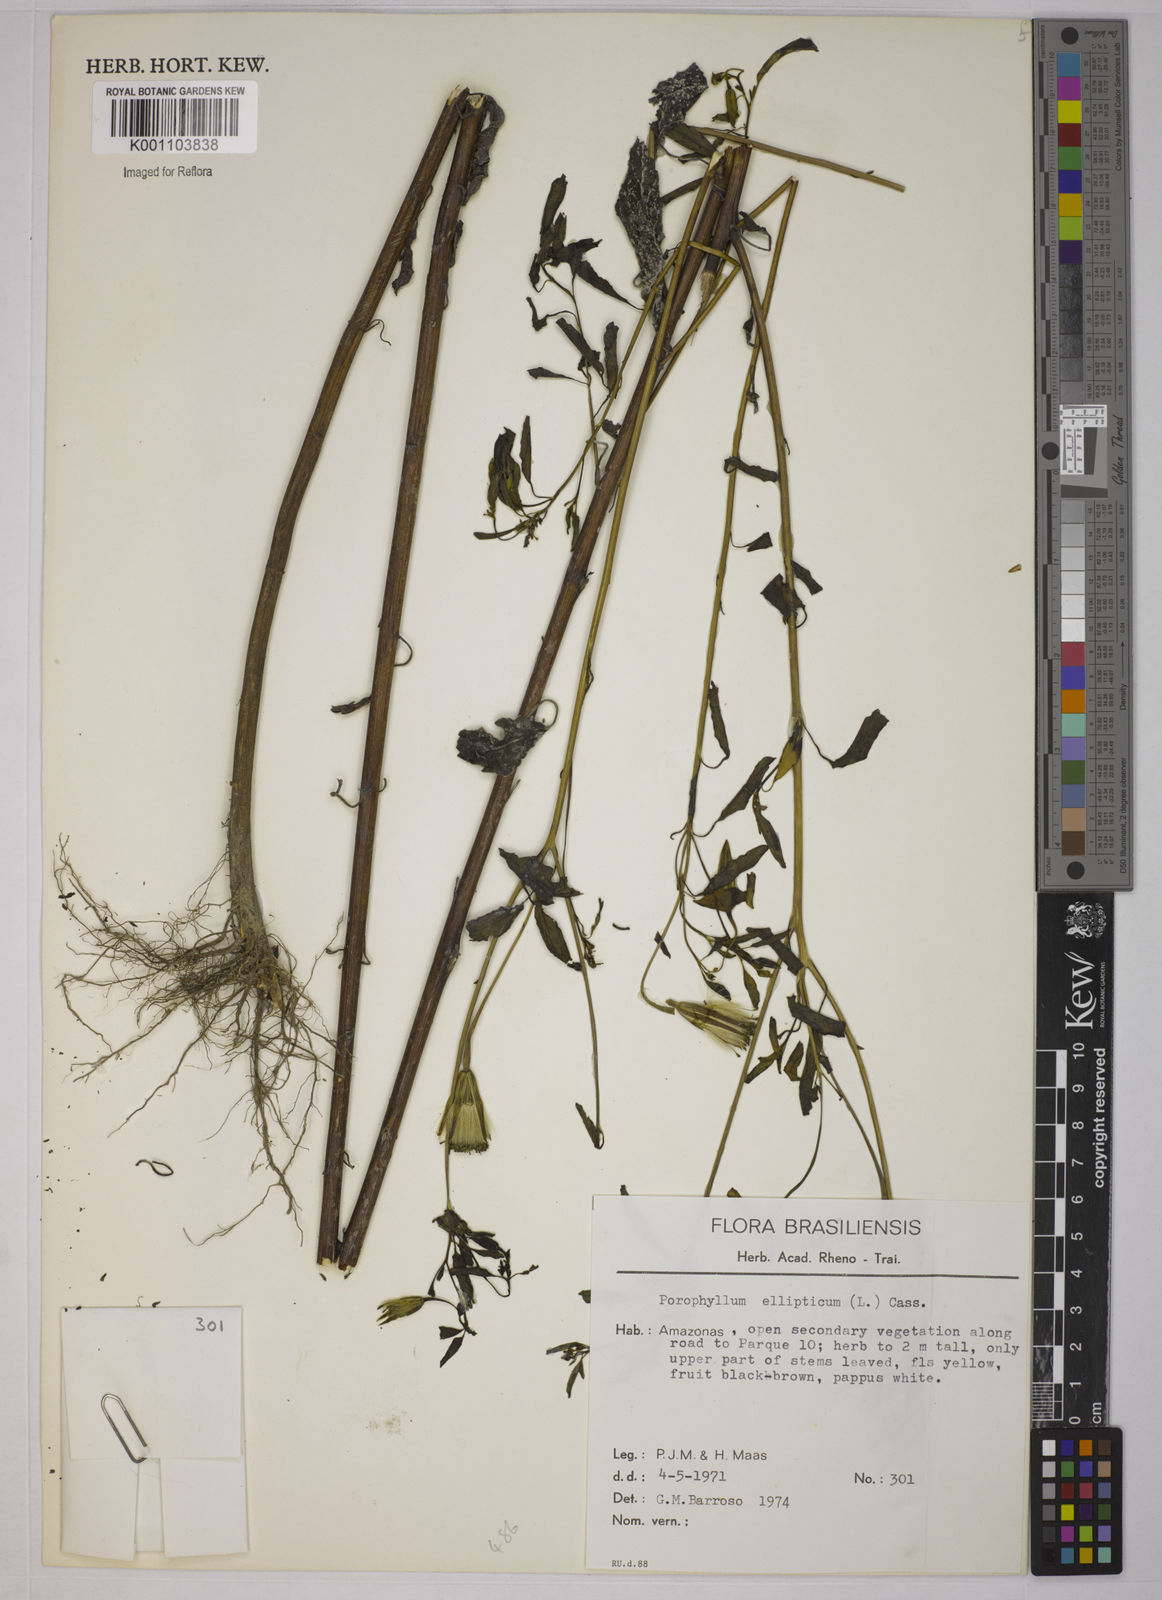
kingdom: Plantae
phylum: Tracheophyta
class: Magnoliopsida
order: Asterales
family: Asteraceae
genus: Porophyllum
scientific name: Porophyllum ruderale
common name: Yerba porosa
